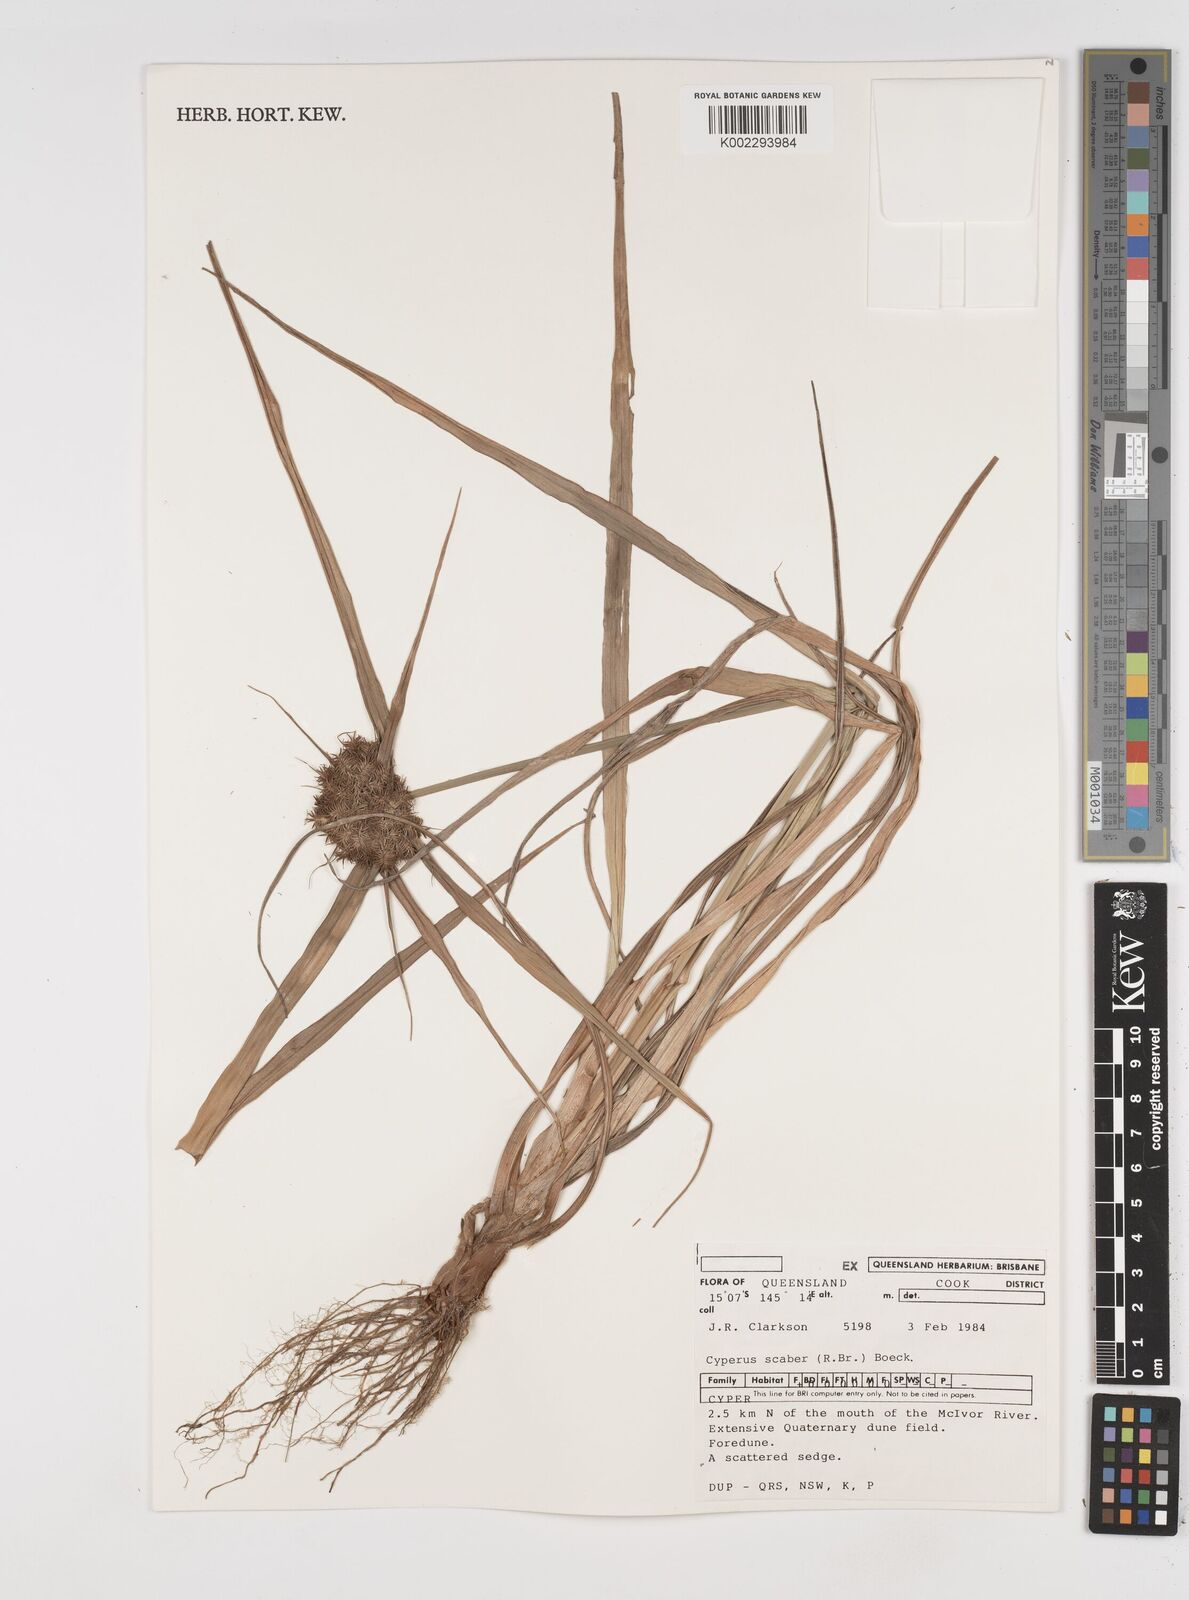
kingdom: Plantae
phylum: Tracheophyta
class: Liliopsida
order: Poales
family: Cyperaceae
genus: Cyperus
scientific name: Cyperus scaber
